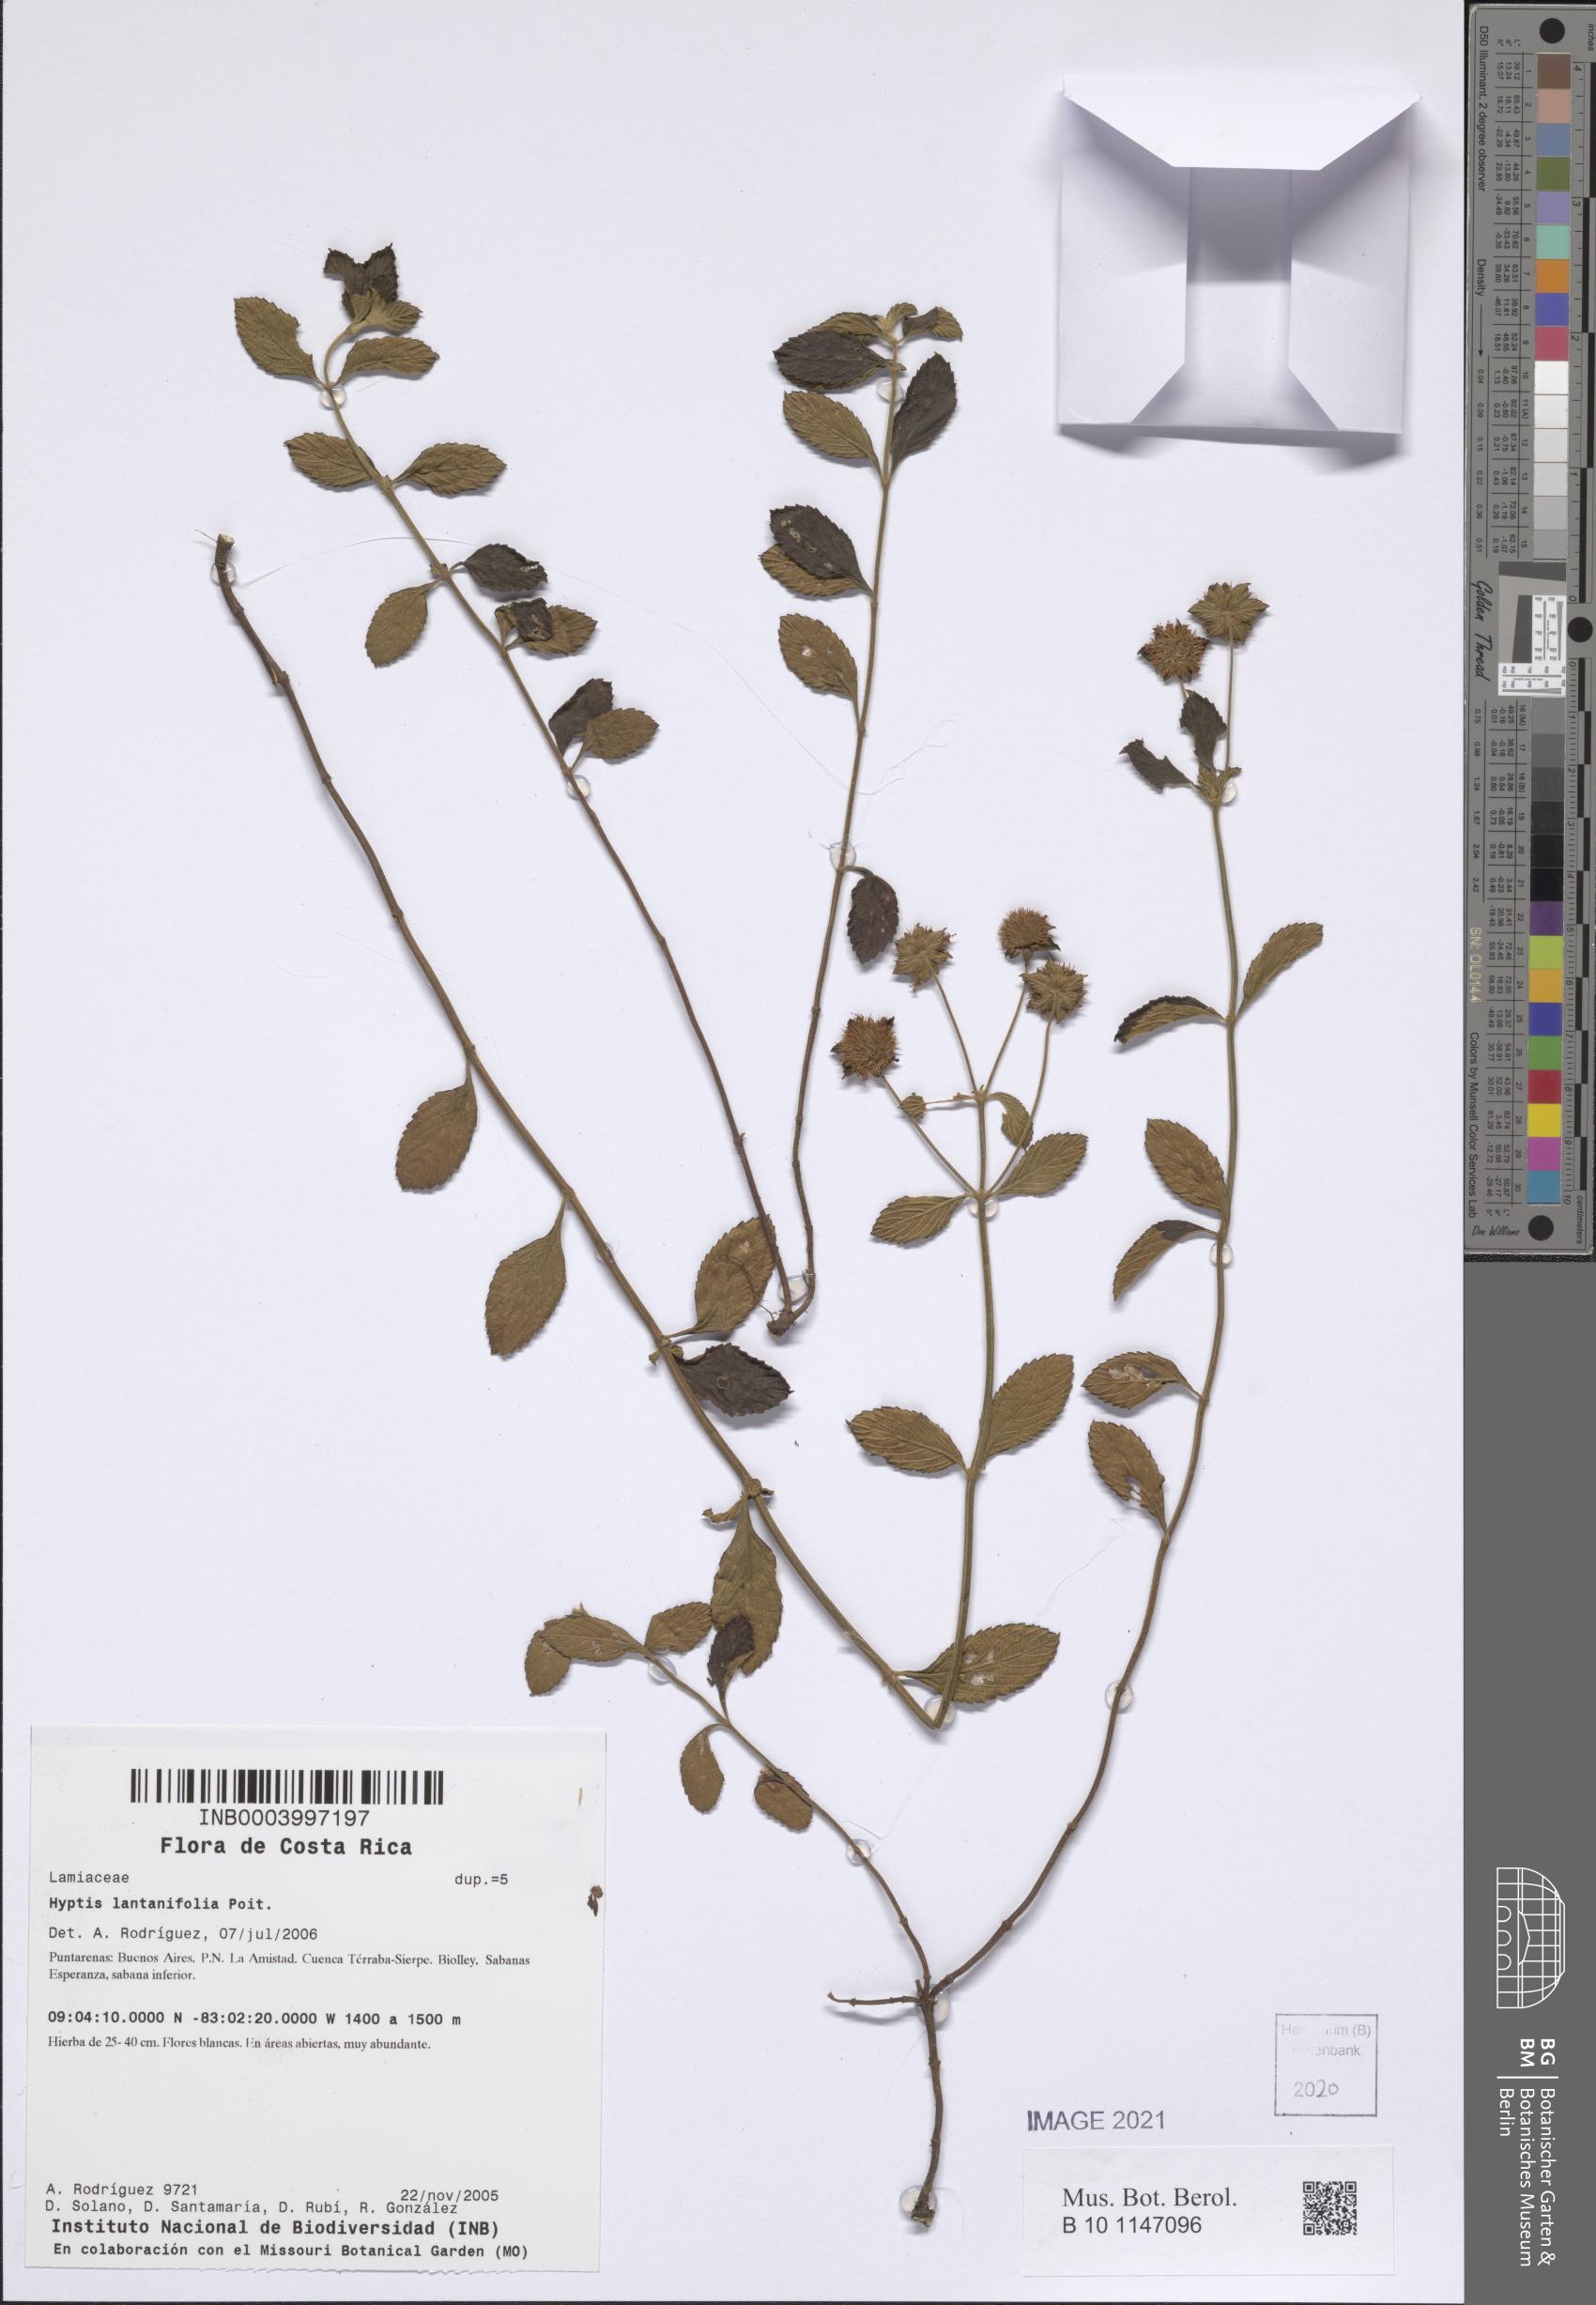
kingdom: Plantae
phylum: Tracheophyta
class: Magnoliopsida
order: Lamiales
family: Lamiaceae
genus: Hyptis
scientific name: Hyptis lantanifolia
